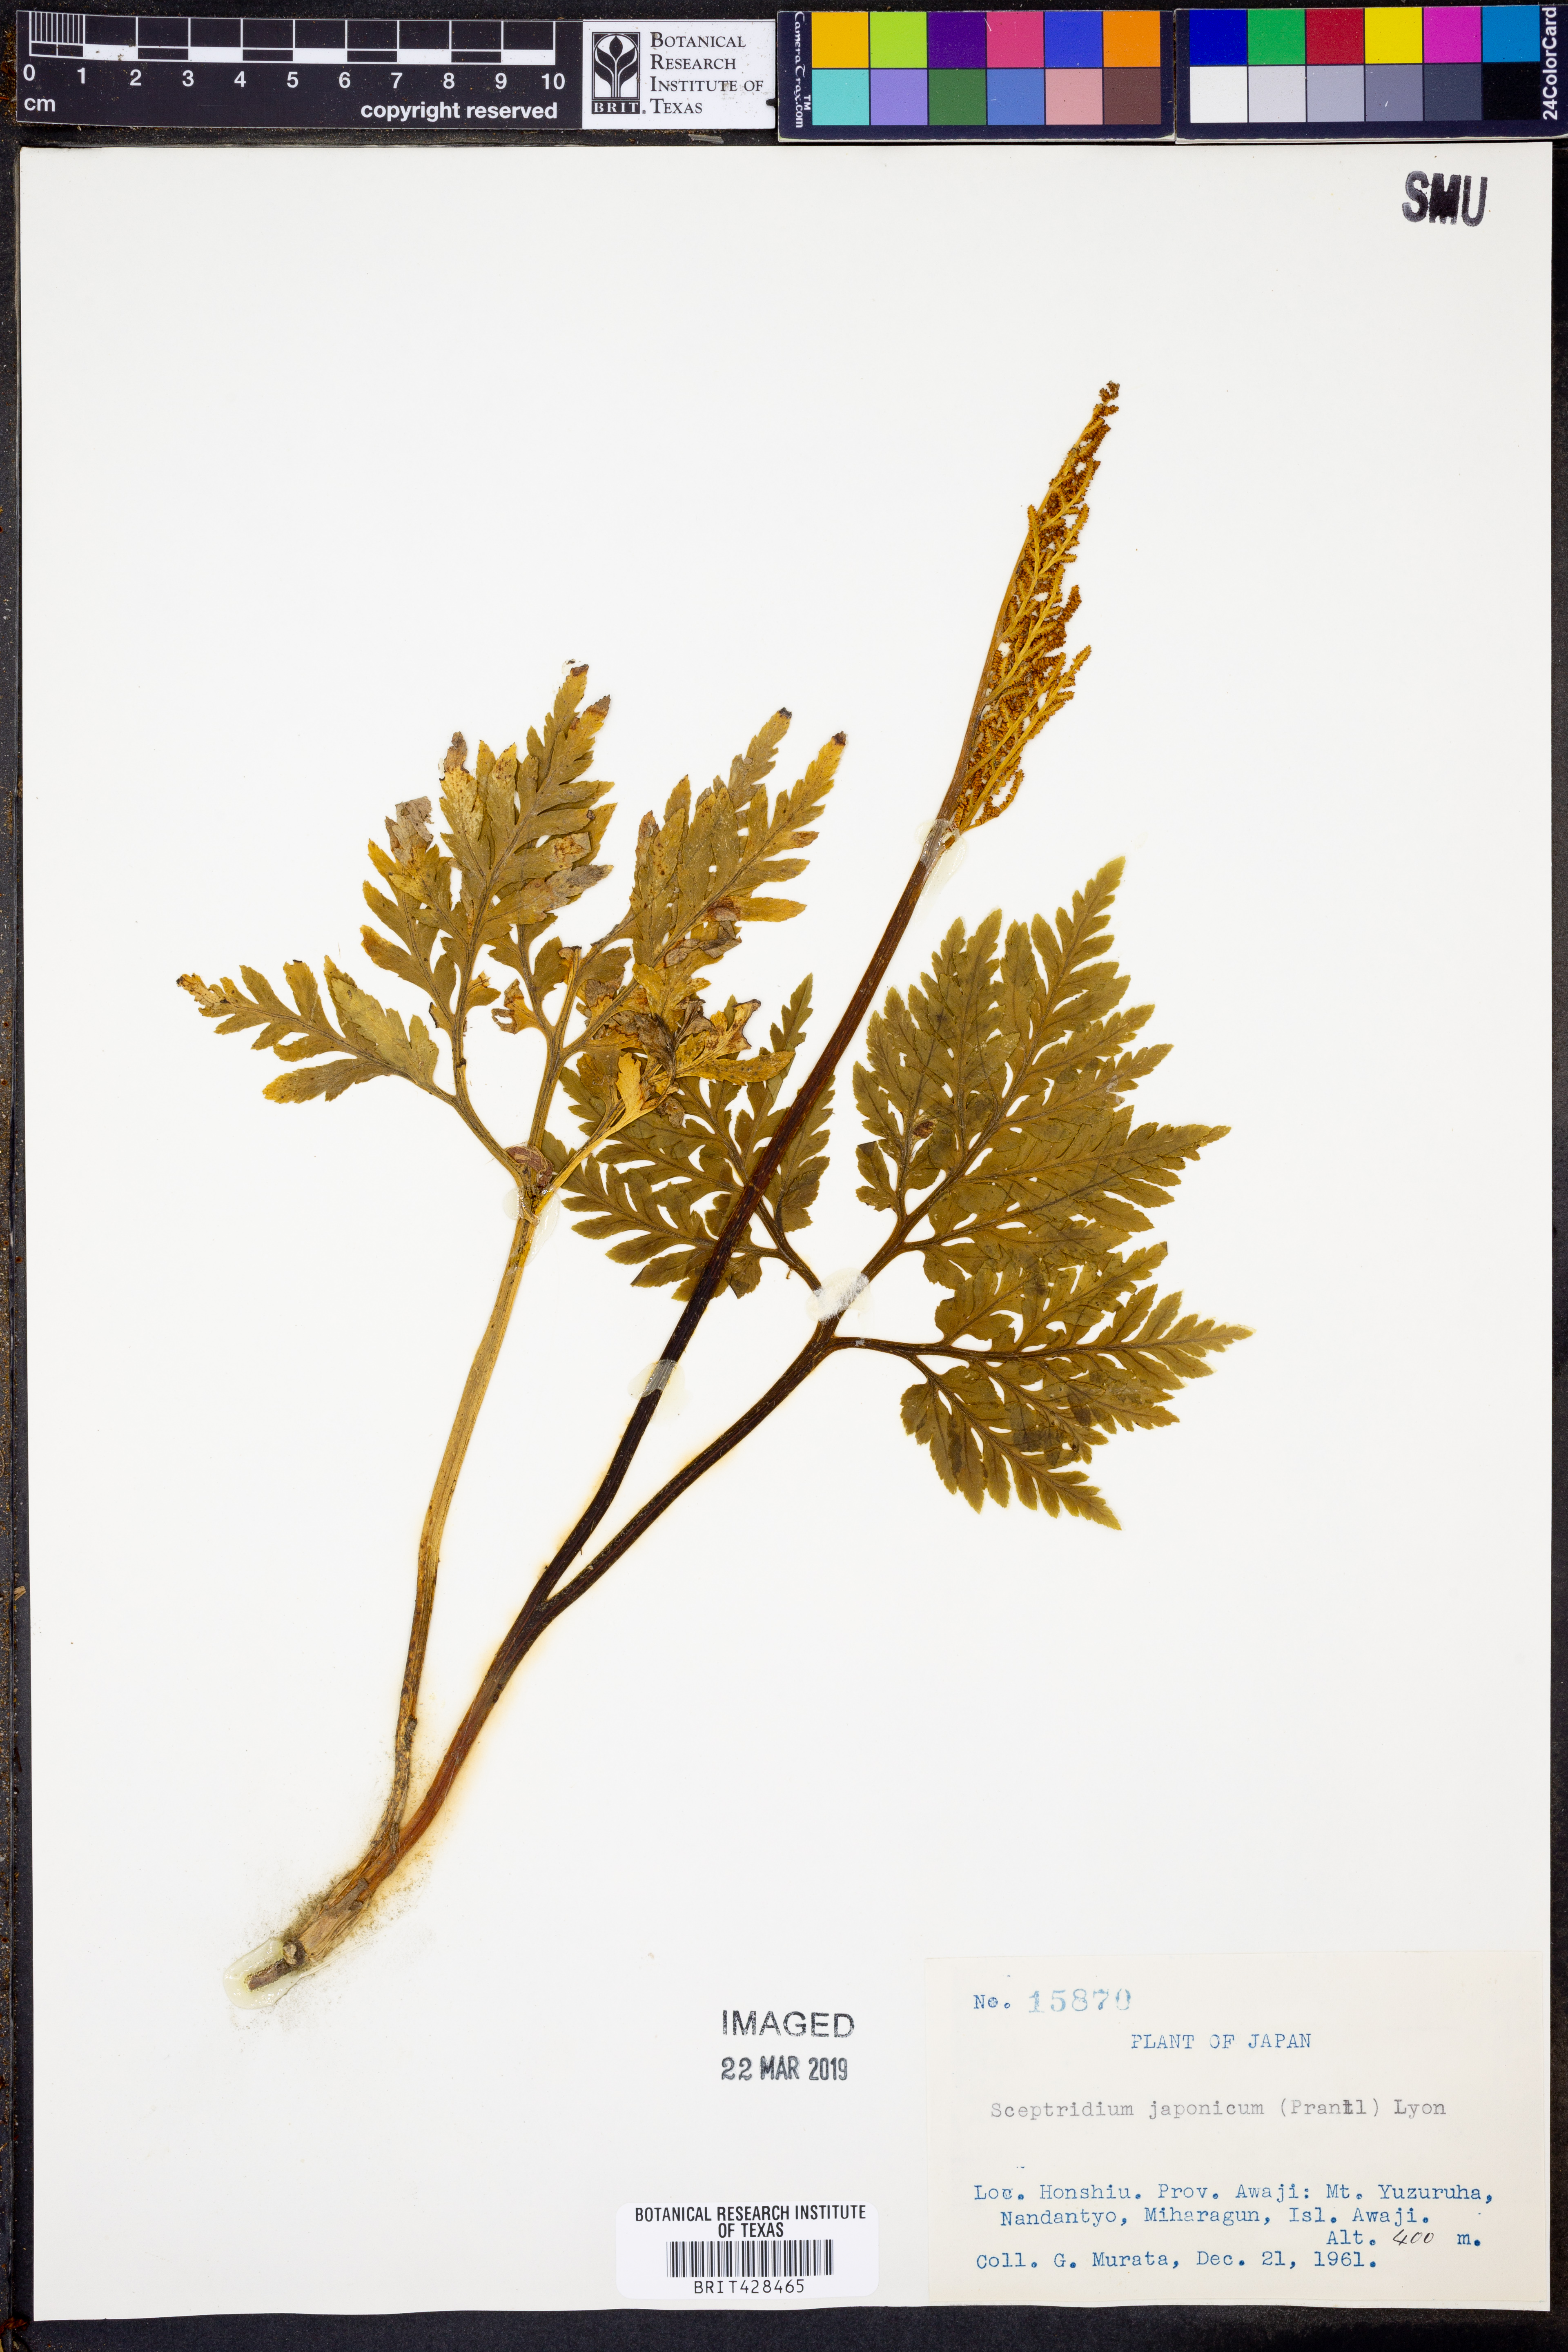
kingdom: Plantae
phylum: Tracheophyta
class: Polypodiopsida
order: Ophioglossales
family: Ophioglossaceae
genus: Sceptridium
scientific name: Sceptridium japonicum
